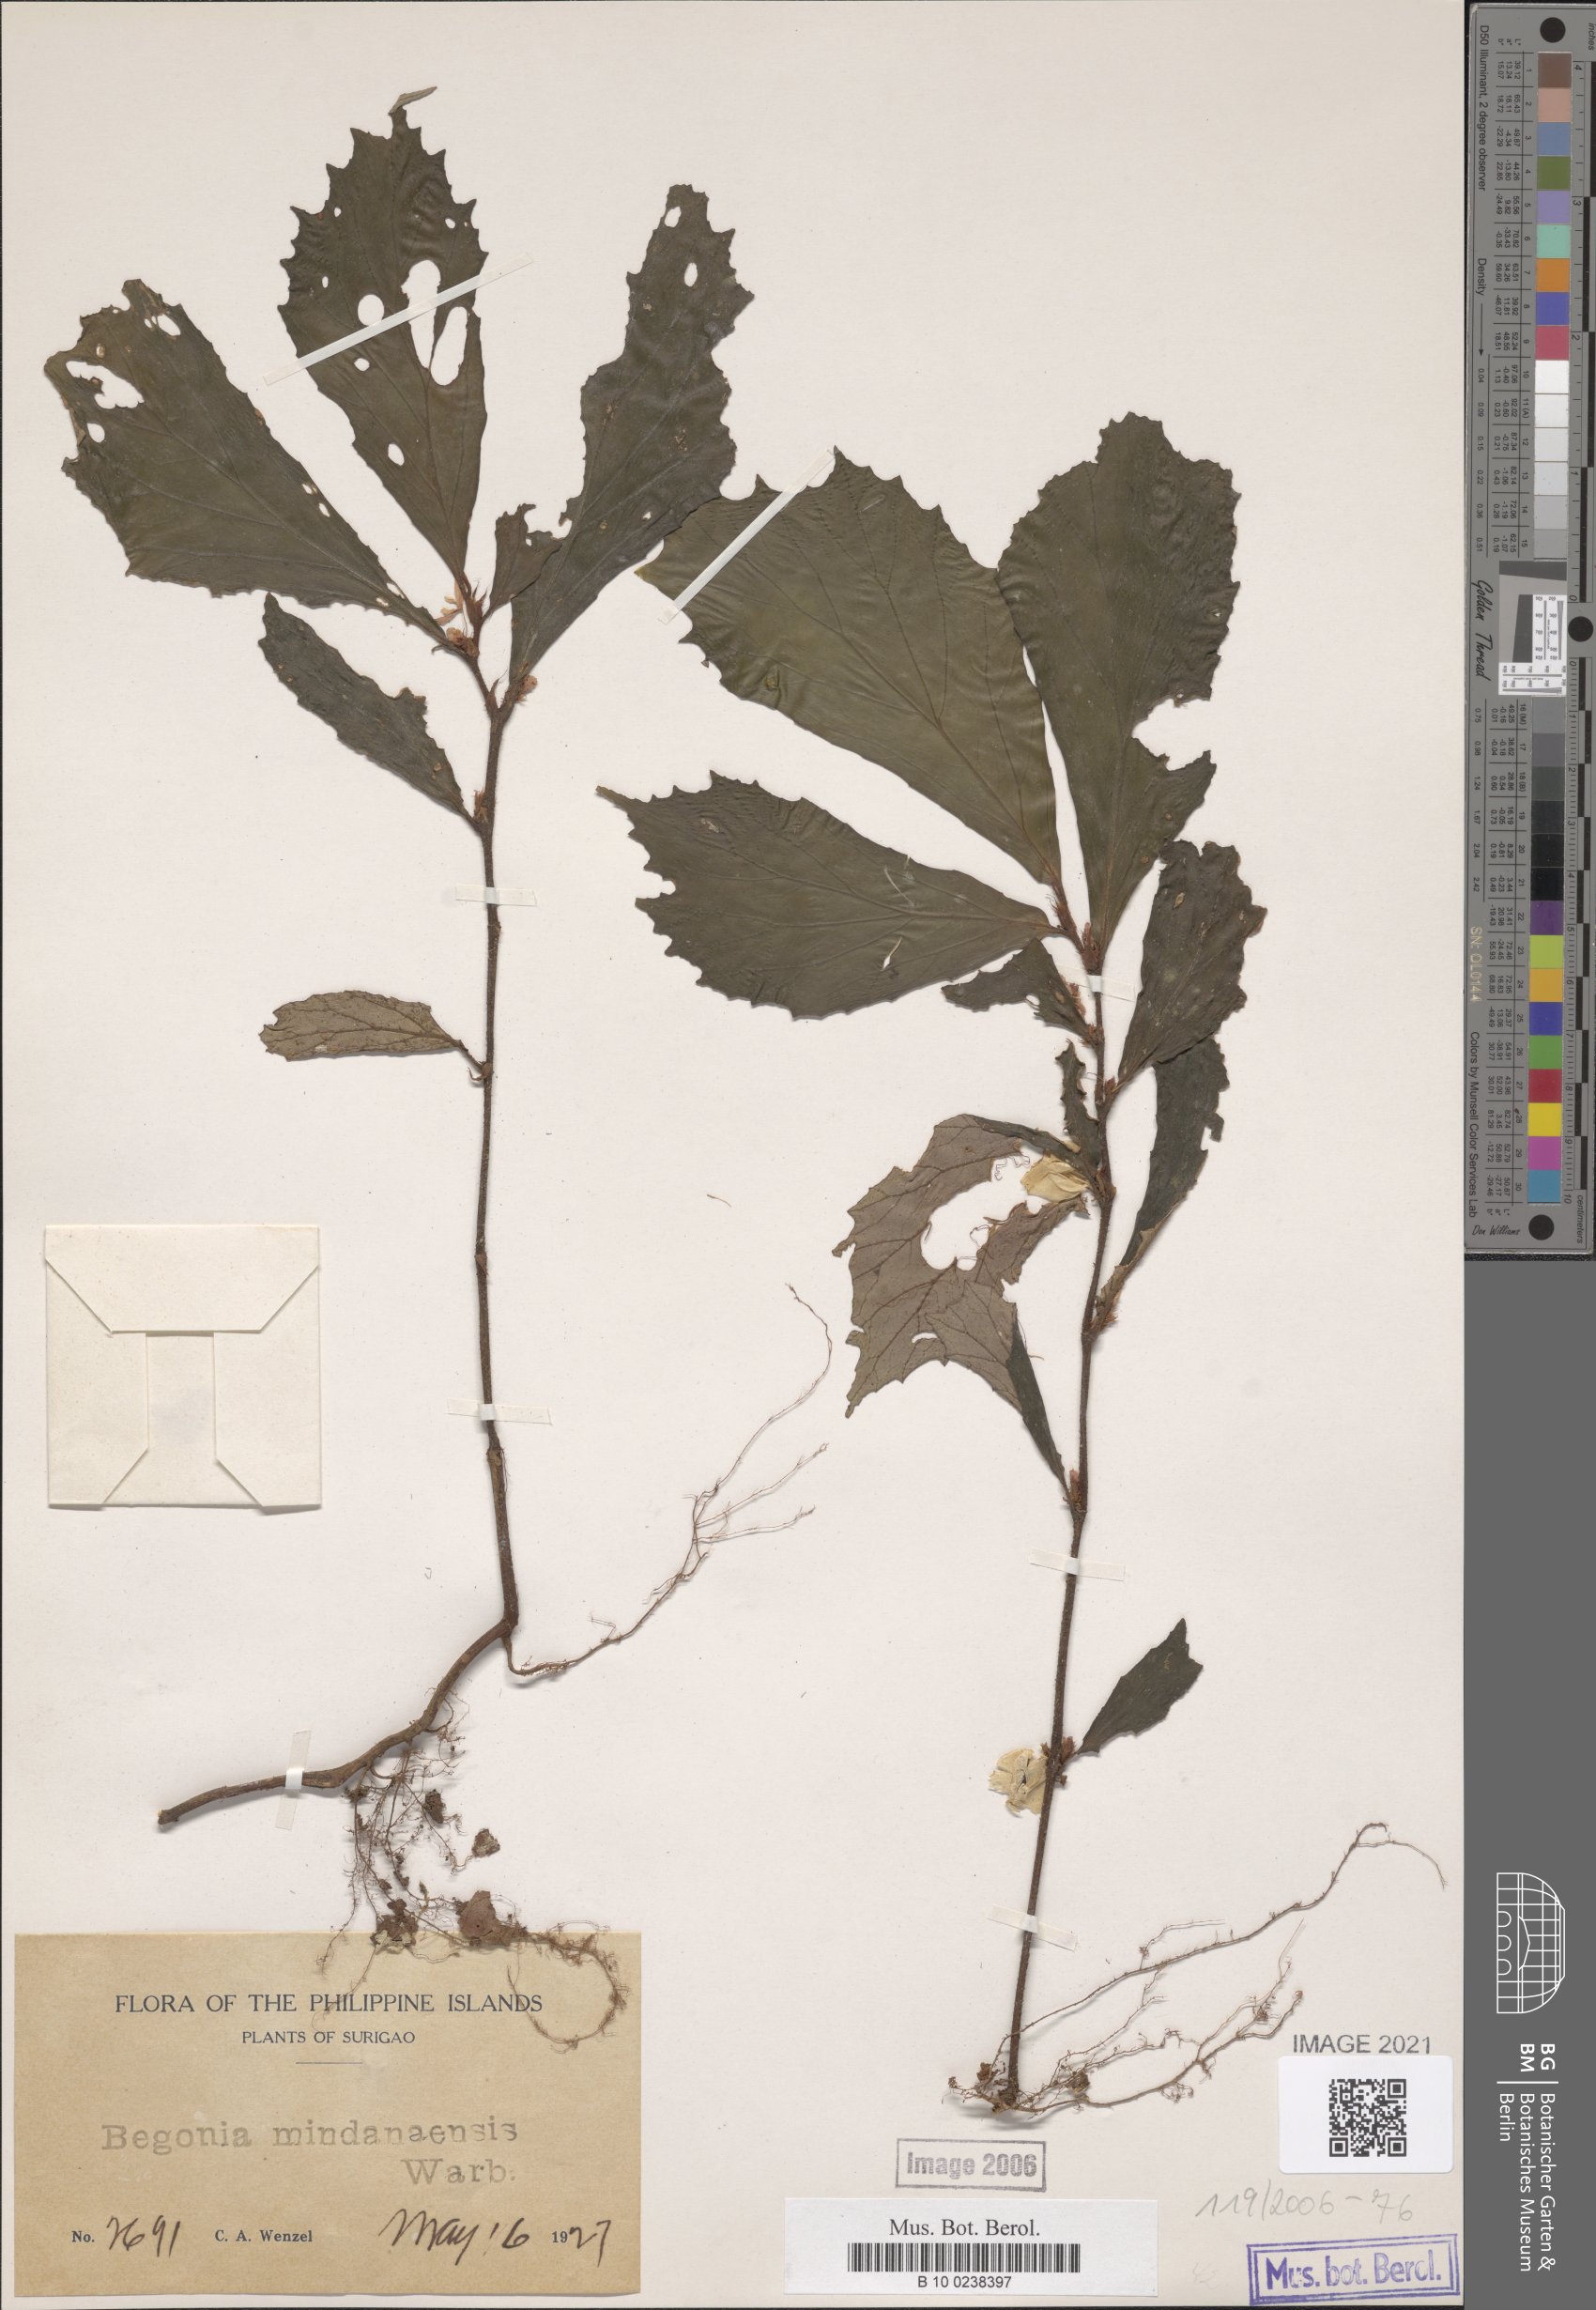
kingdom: Plantae
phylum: Tracheophyta
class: Magnoliopsida
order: Cucurbitales
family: Begoniaceae
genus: Begonia
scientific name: Begonia mindanaensis
